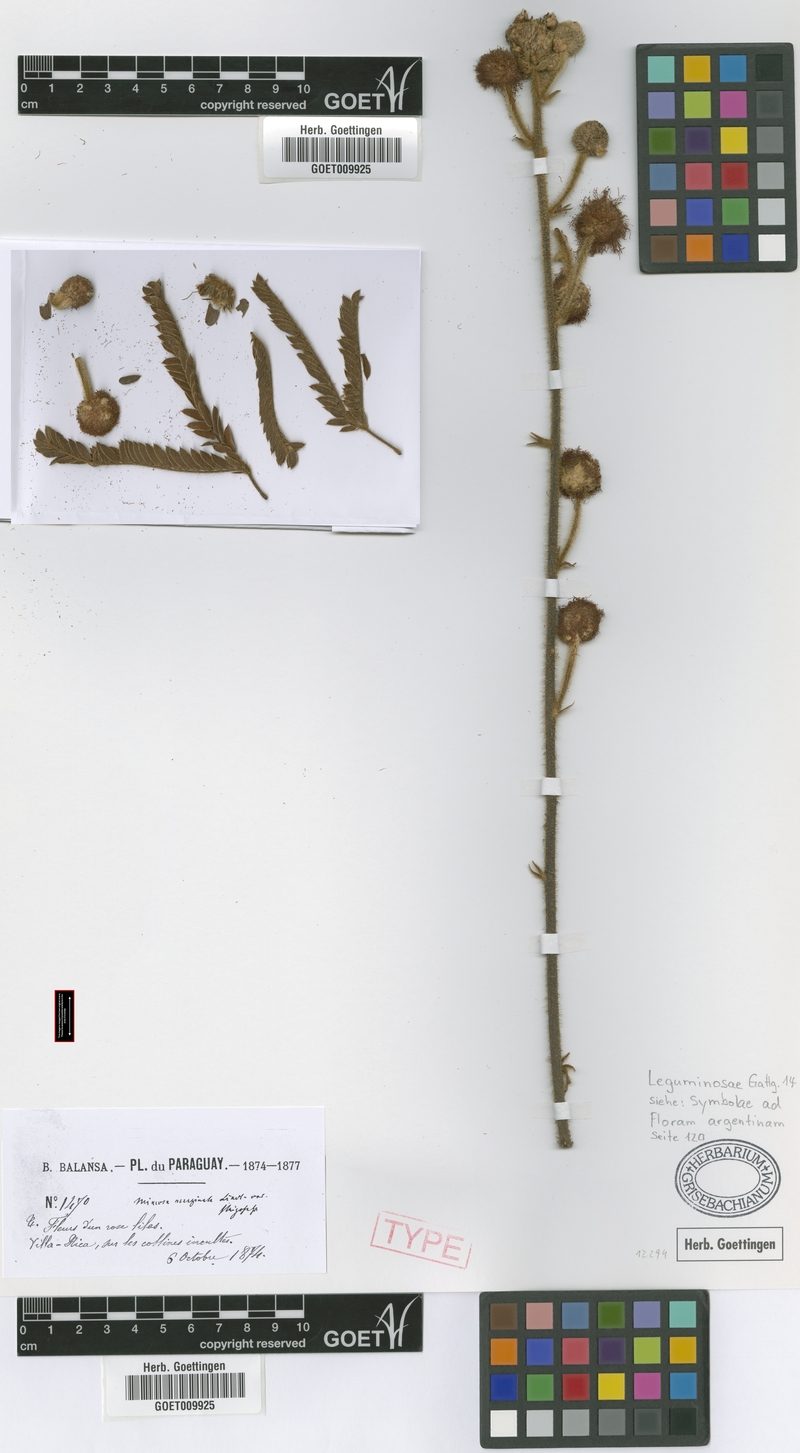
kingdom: Plantae
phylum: Tracheophyta
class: Magnoliopsida
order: Fabales
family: Fabaceae
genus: Mimosa
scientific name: Mimosa dolens
